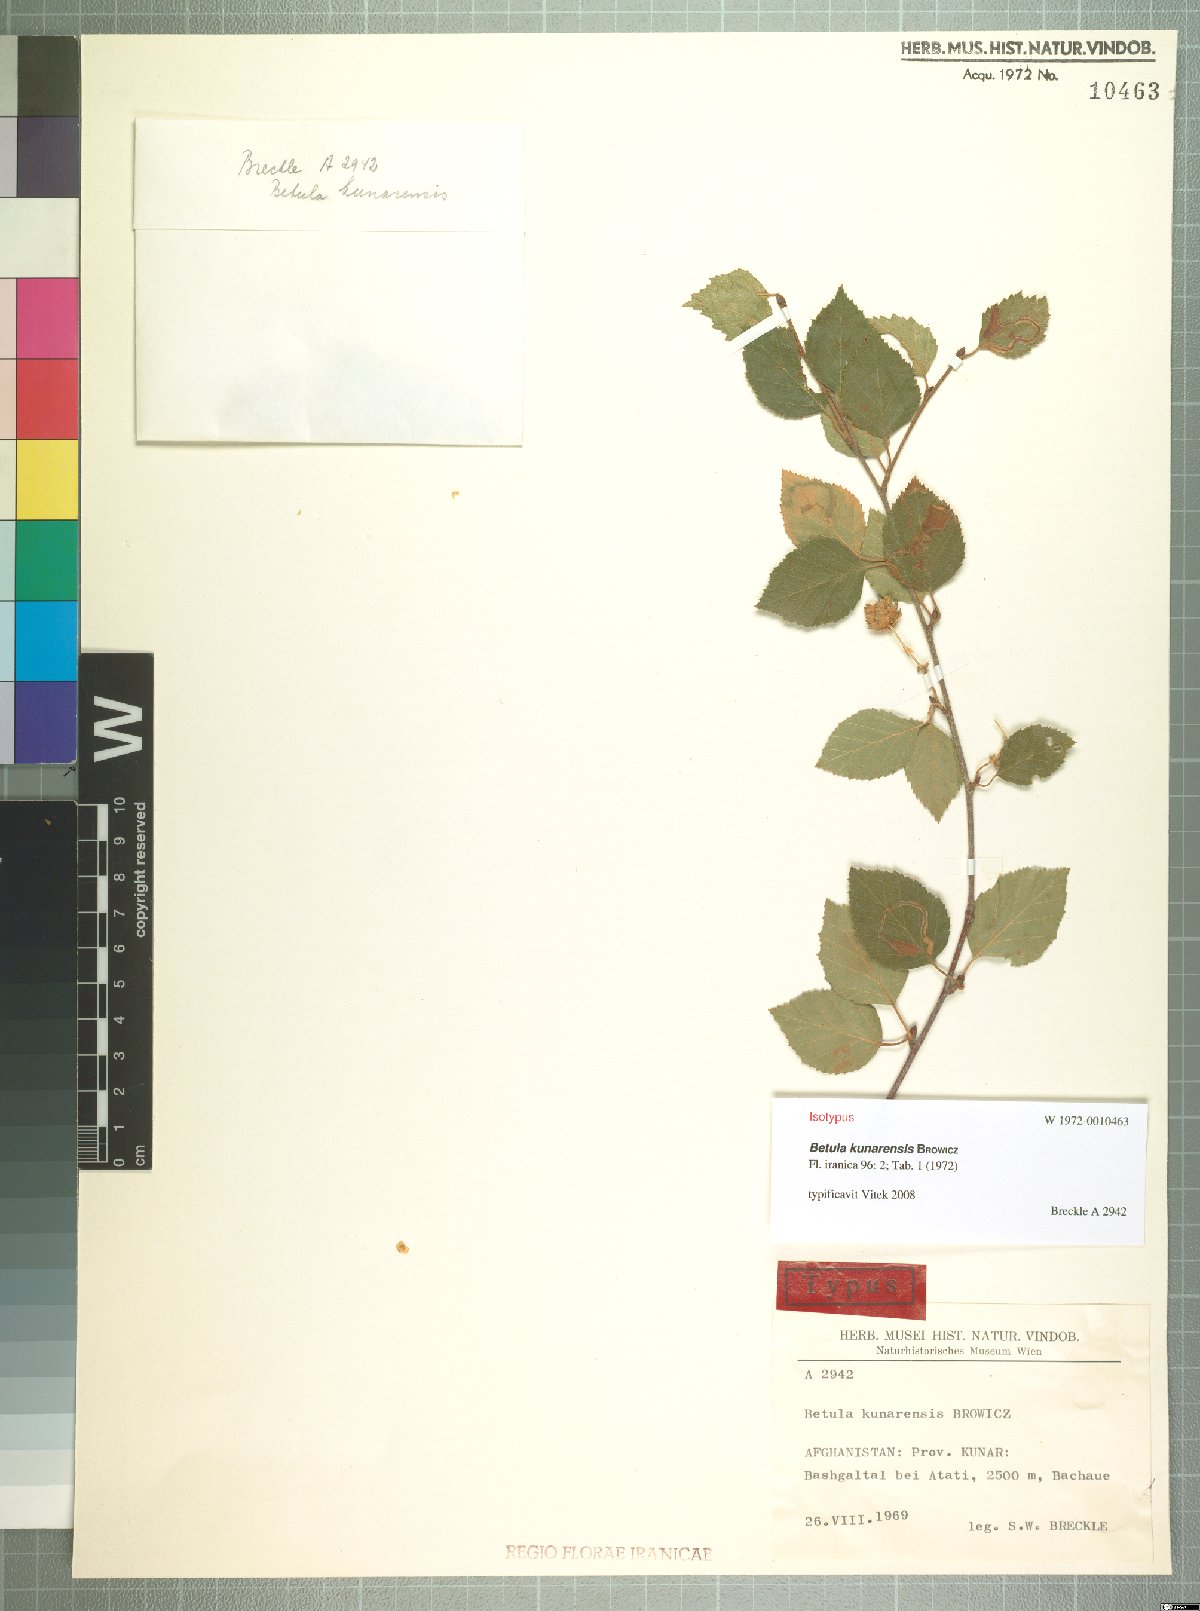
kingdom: Plantae
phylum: Tracheophyta
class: Magnoliopsida
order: Fagales
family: Betulaceae
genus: Betula
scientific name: Betula utilis
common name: Himalayan birch
